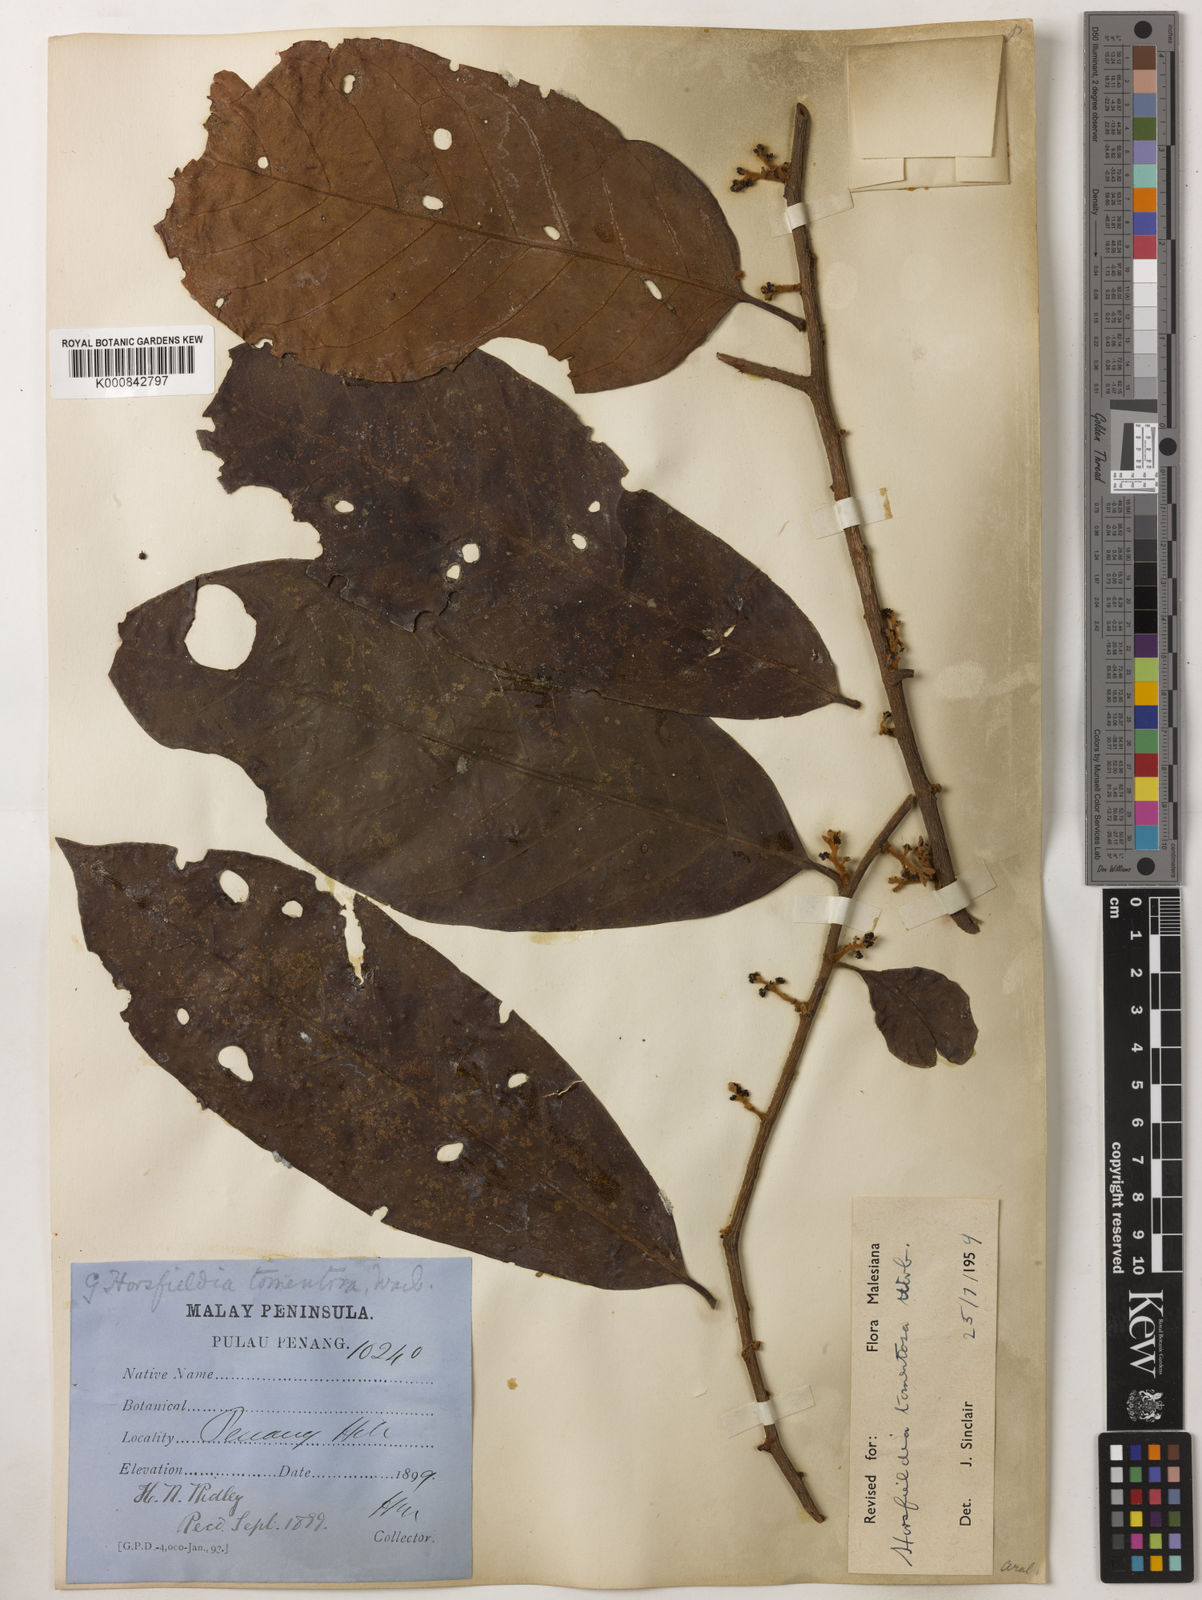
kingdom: Plantae
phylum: Tracheophyta
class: Magnoliopsida
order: Magnoliales
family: Myristicaceae
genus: Horsfieldia
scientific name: Horsfieldia tomentosa
